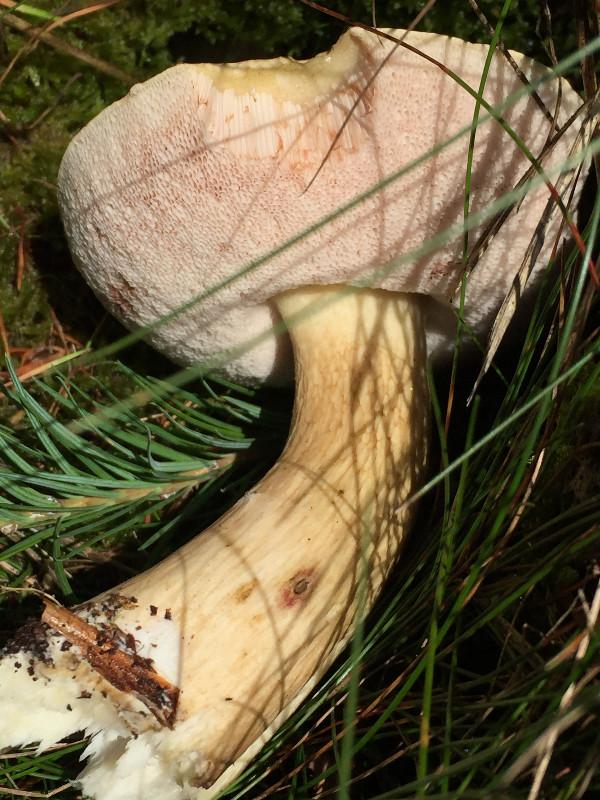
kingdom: Fungi
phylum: Basidiomycota
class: Agaricomycetes
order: Boletales
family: Boletaceae
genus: Tylopilus
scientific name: Tylopilus felleus
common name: galderørhat
